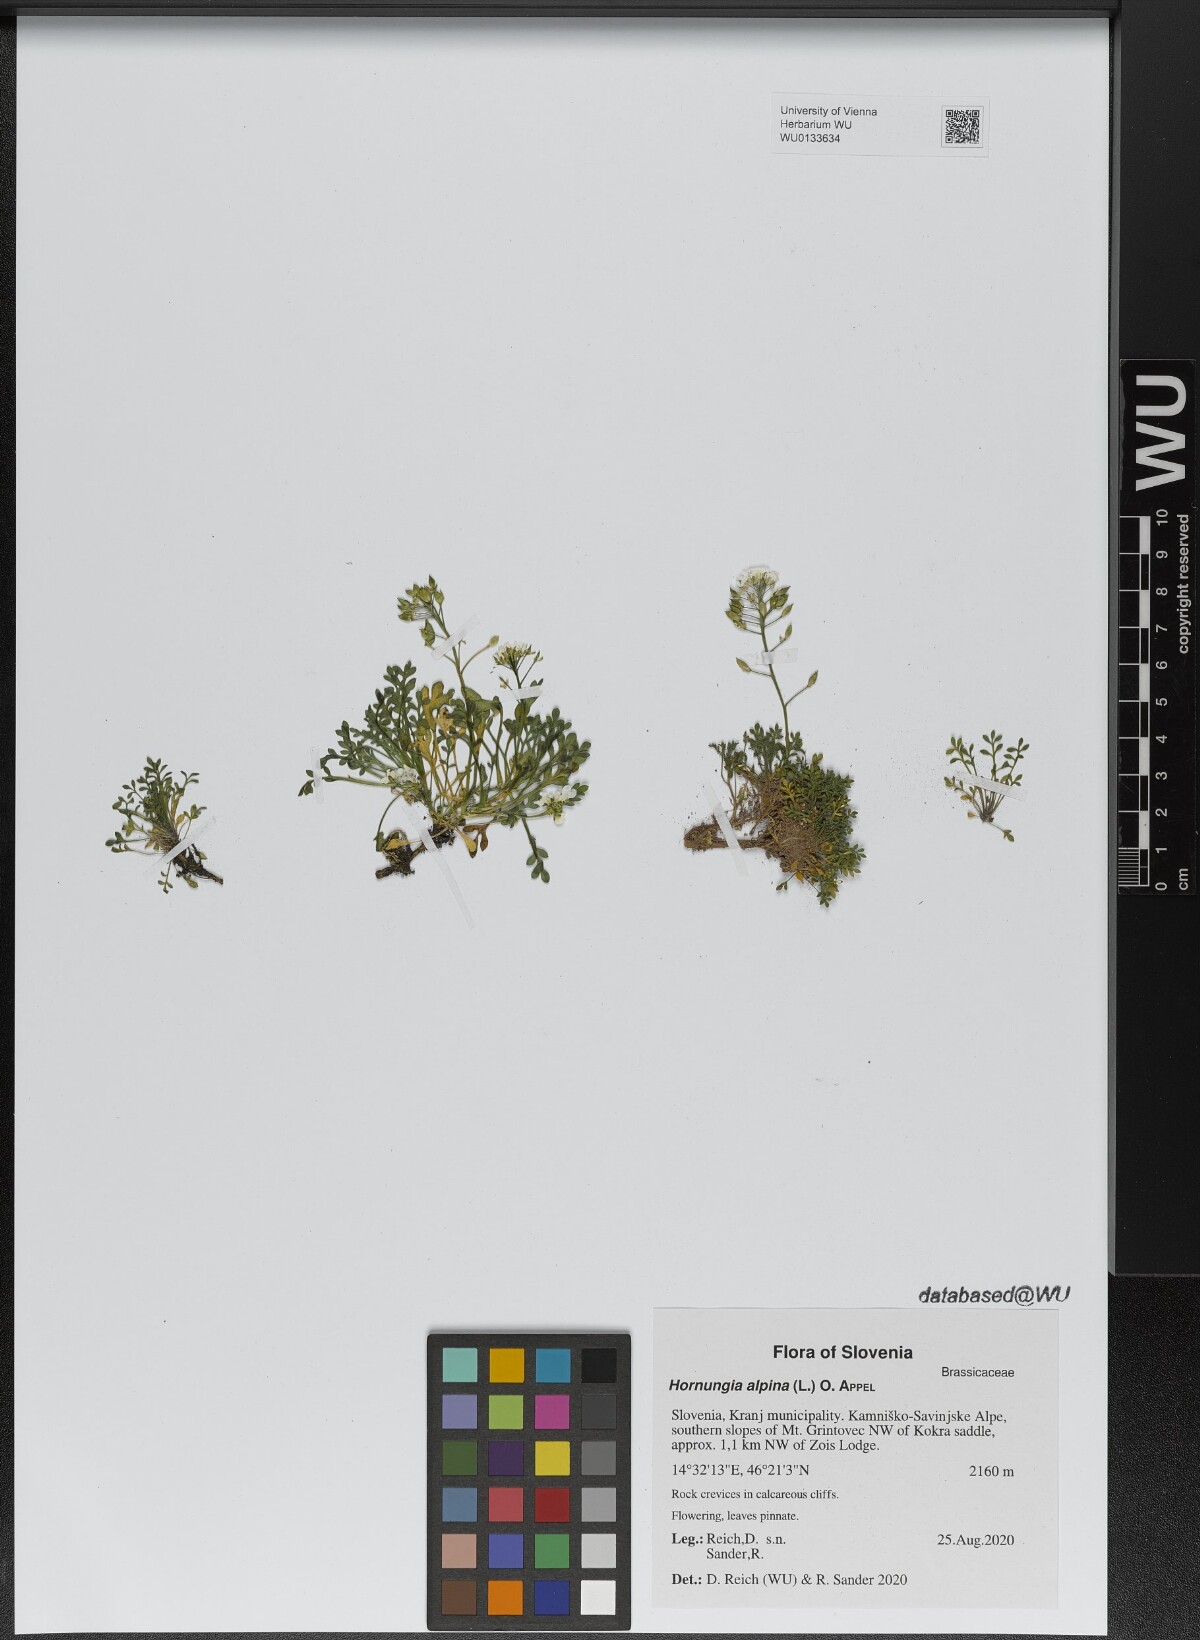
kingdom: Plantae
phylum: Tracheophyta
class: Magnoliopsida
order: Brassicales
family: Brassicaceae
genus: Hornungia
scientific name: Hornungia alpina
